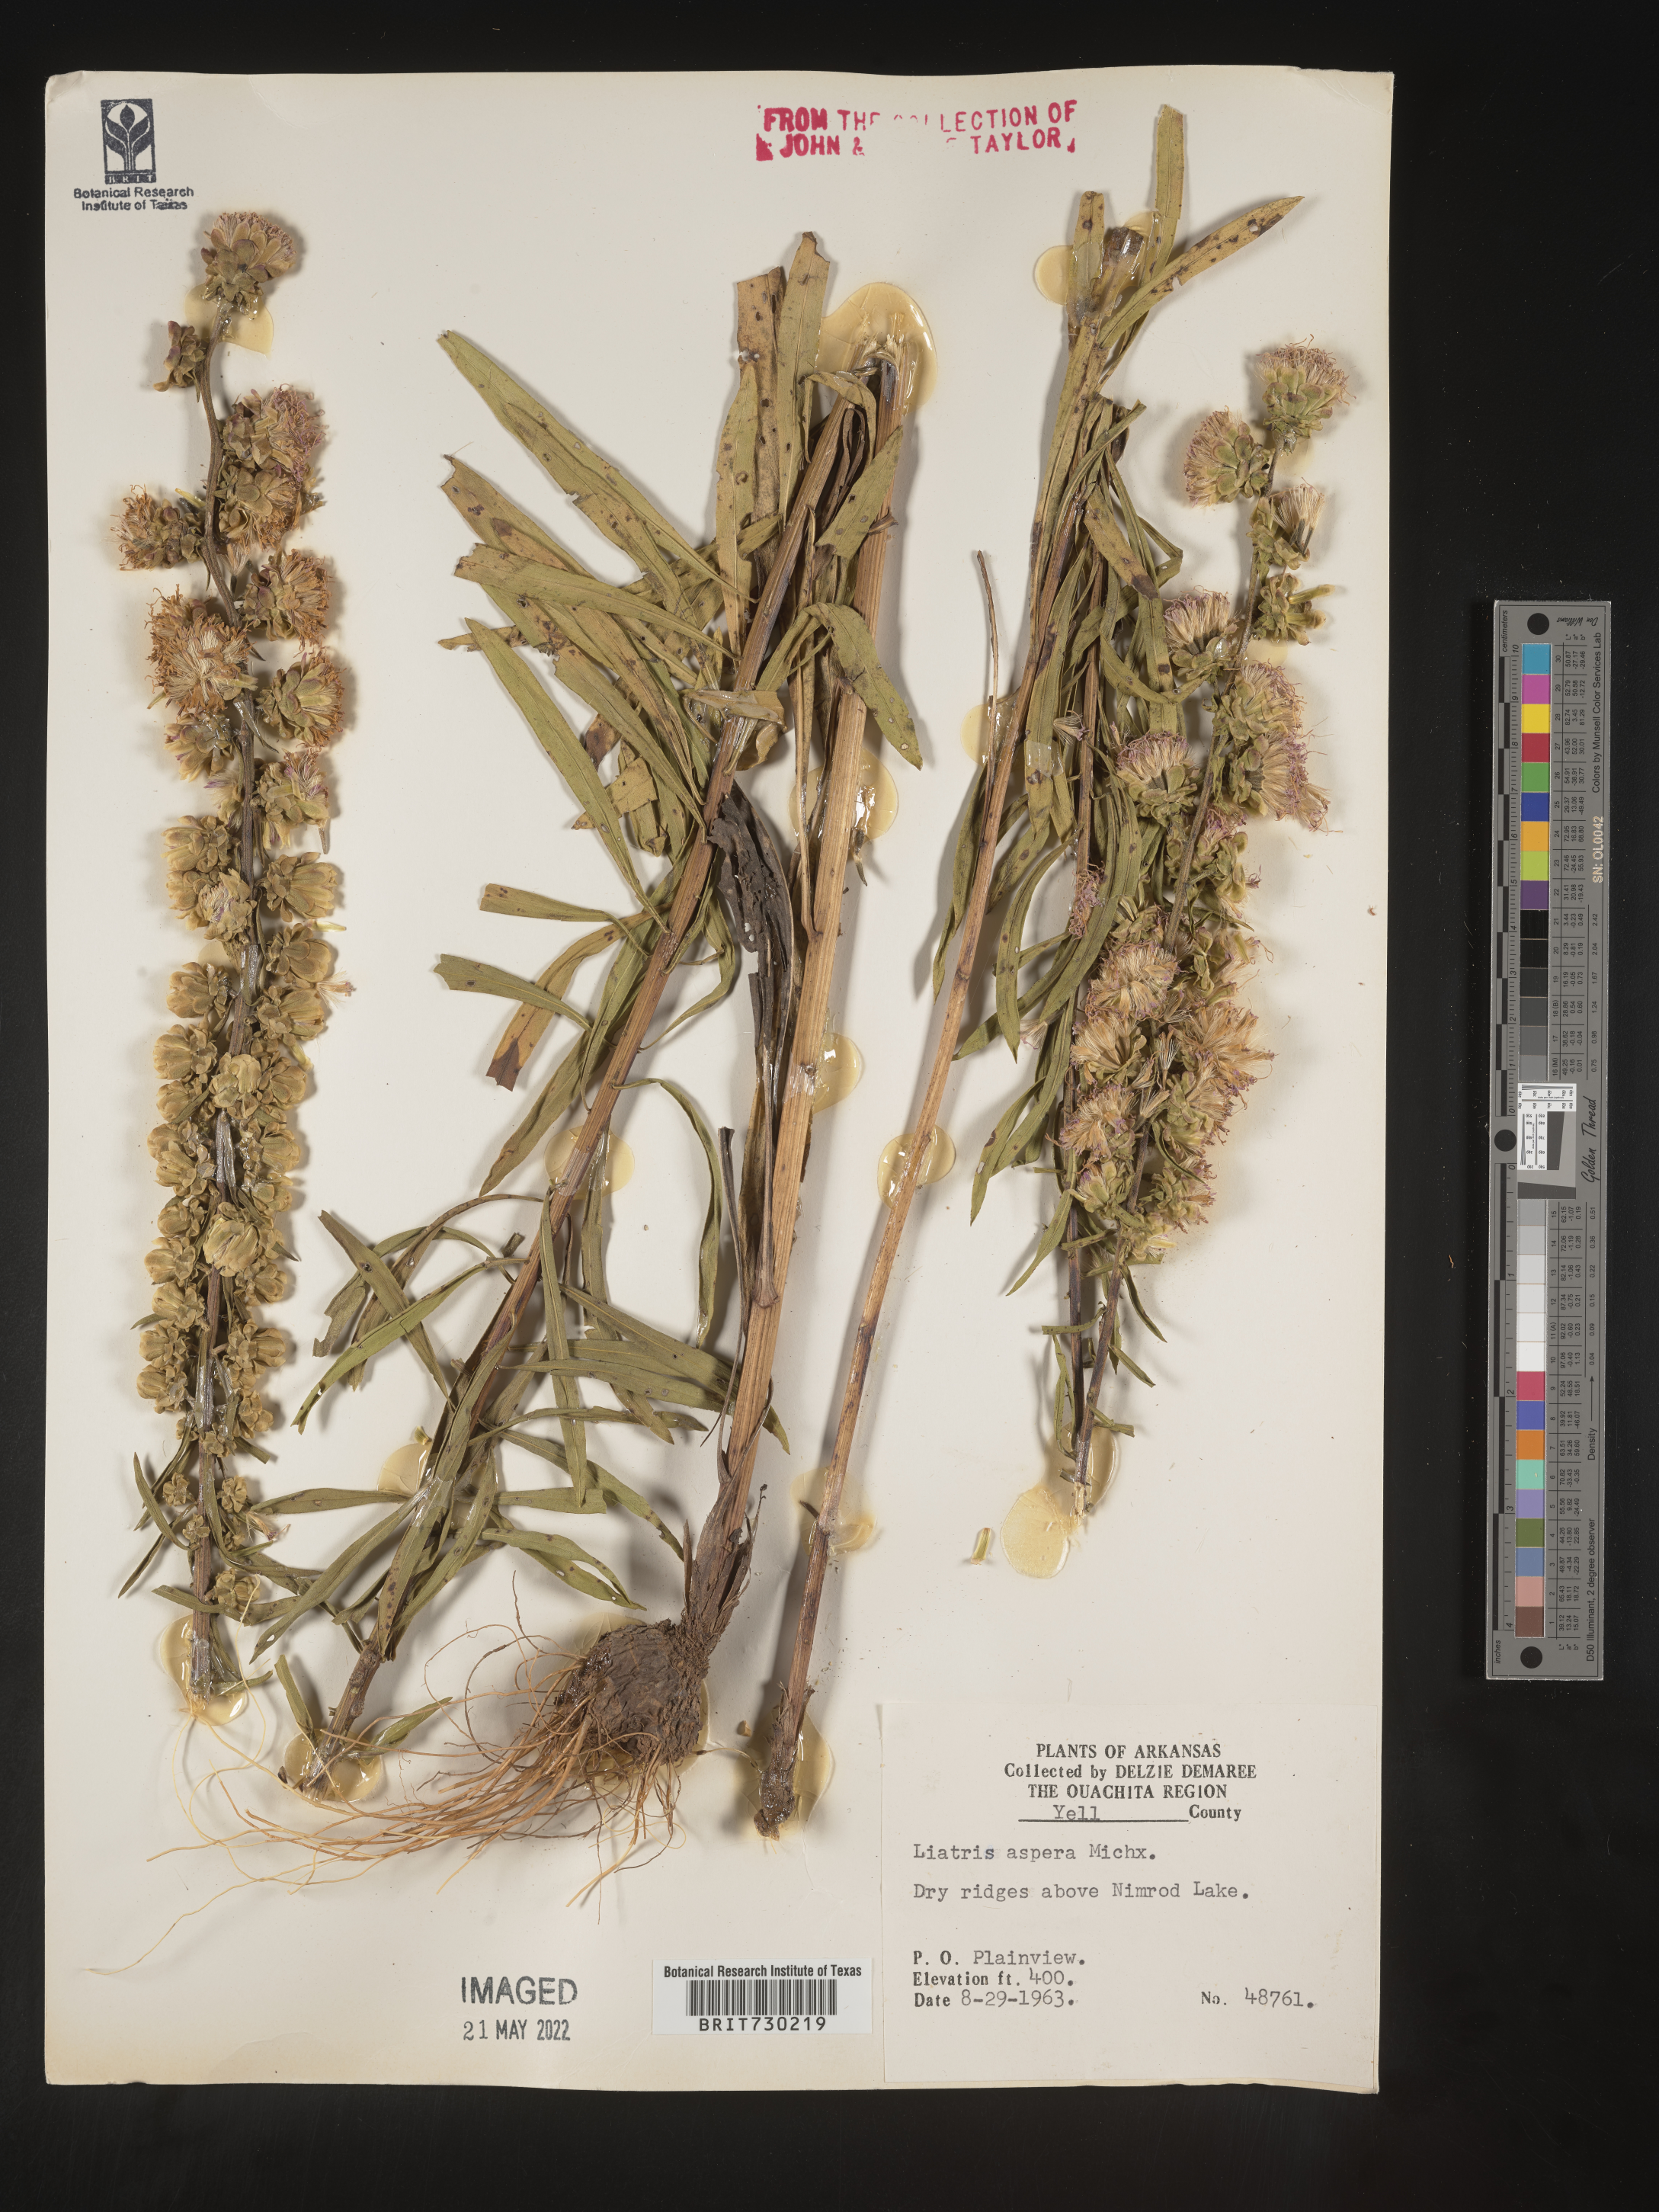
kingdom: Plantae
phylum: Tracheophyta
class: Magnoliopsida
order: Asterales
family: Asteraceae
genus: Liatris
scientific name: Liatris aspera
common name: Lacerate blazing-star
